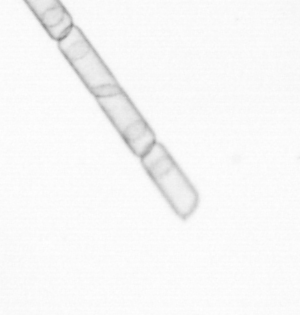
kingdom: Chromista
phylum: Ochrophyta
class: Bacillariophyceae
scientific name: Bacillariophyceae
